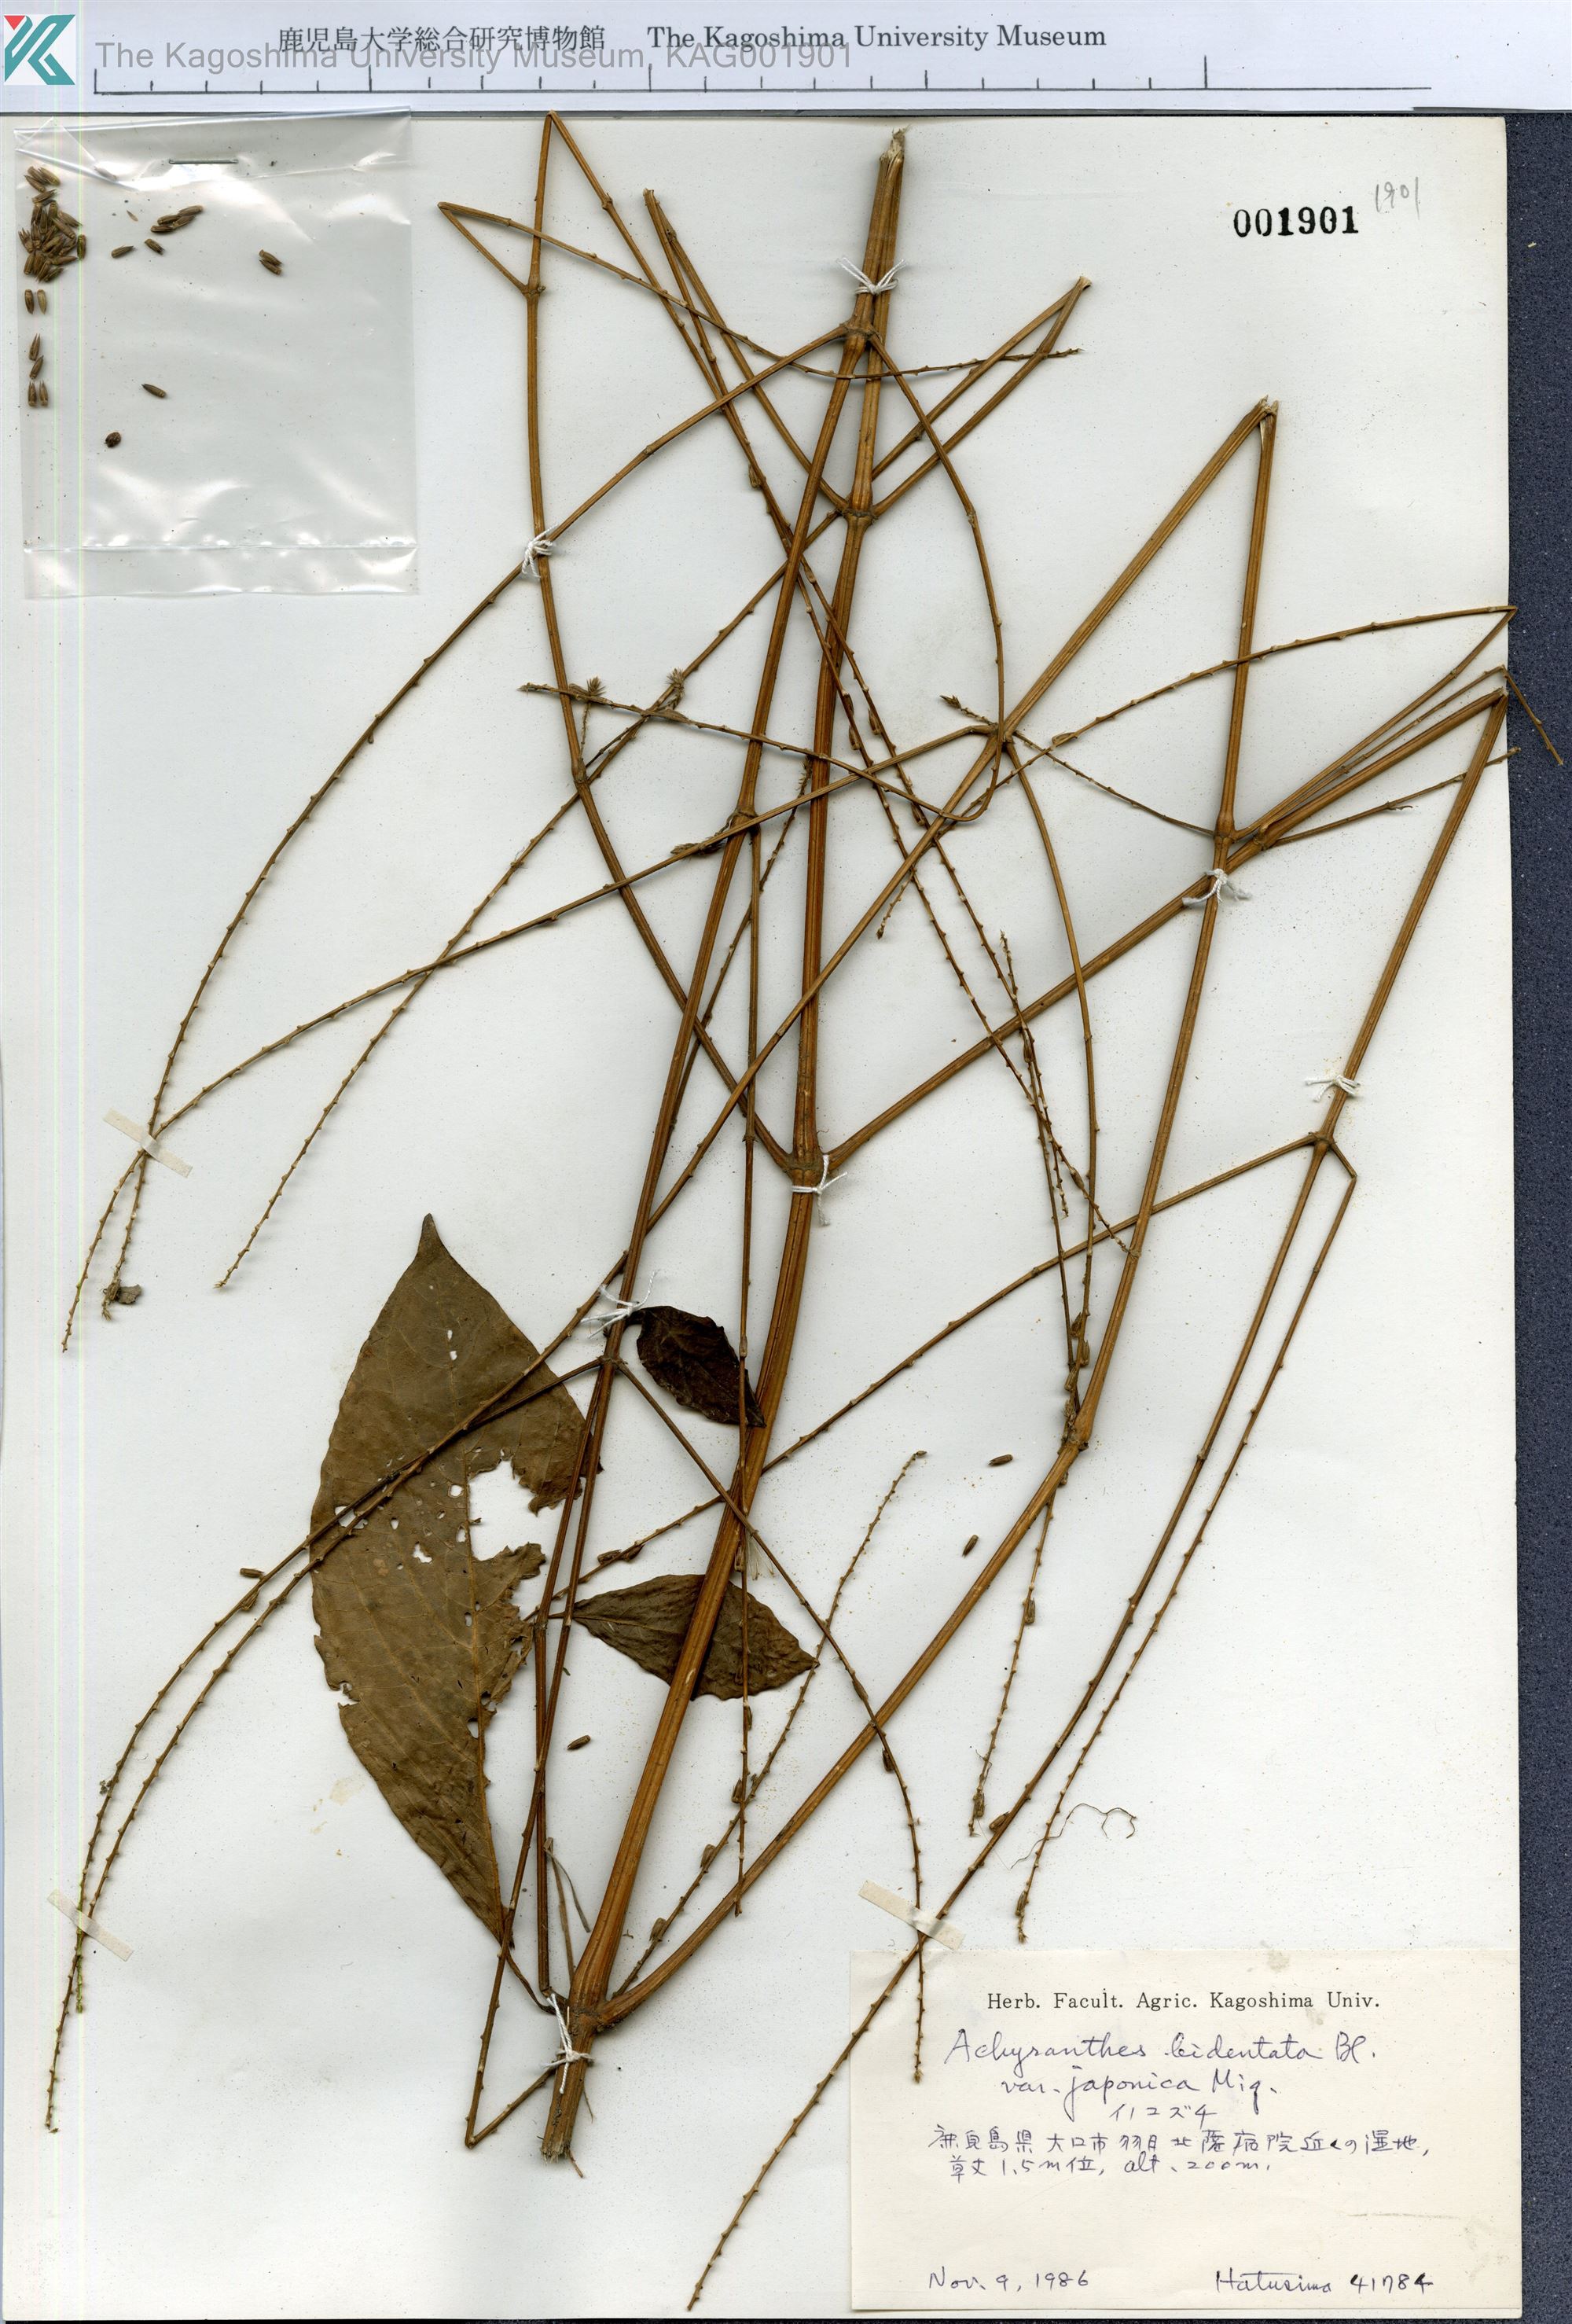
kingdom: Plantae
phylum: Tracheophyta
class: Magnoliopsida
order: Caryophyllales
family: Amaranthaceae
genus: Achyranthes
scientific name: Achyranthes bidentata
